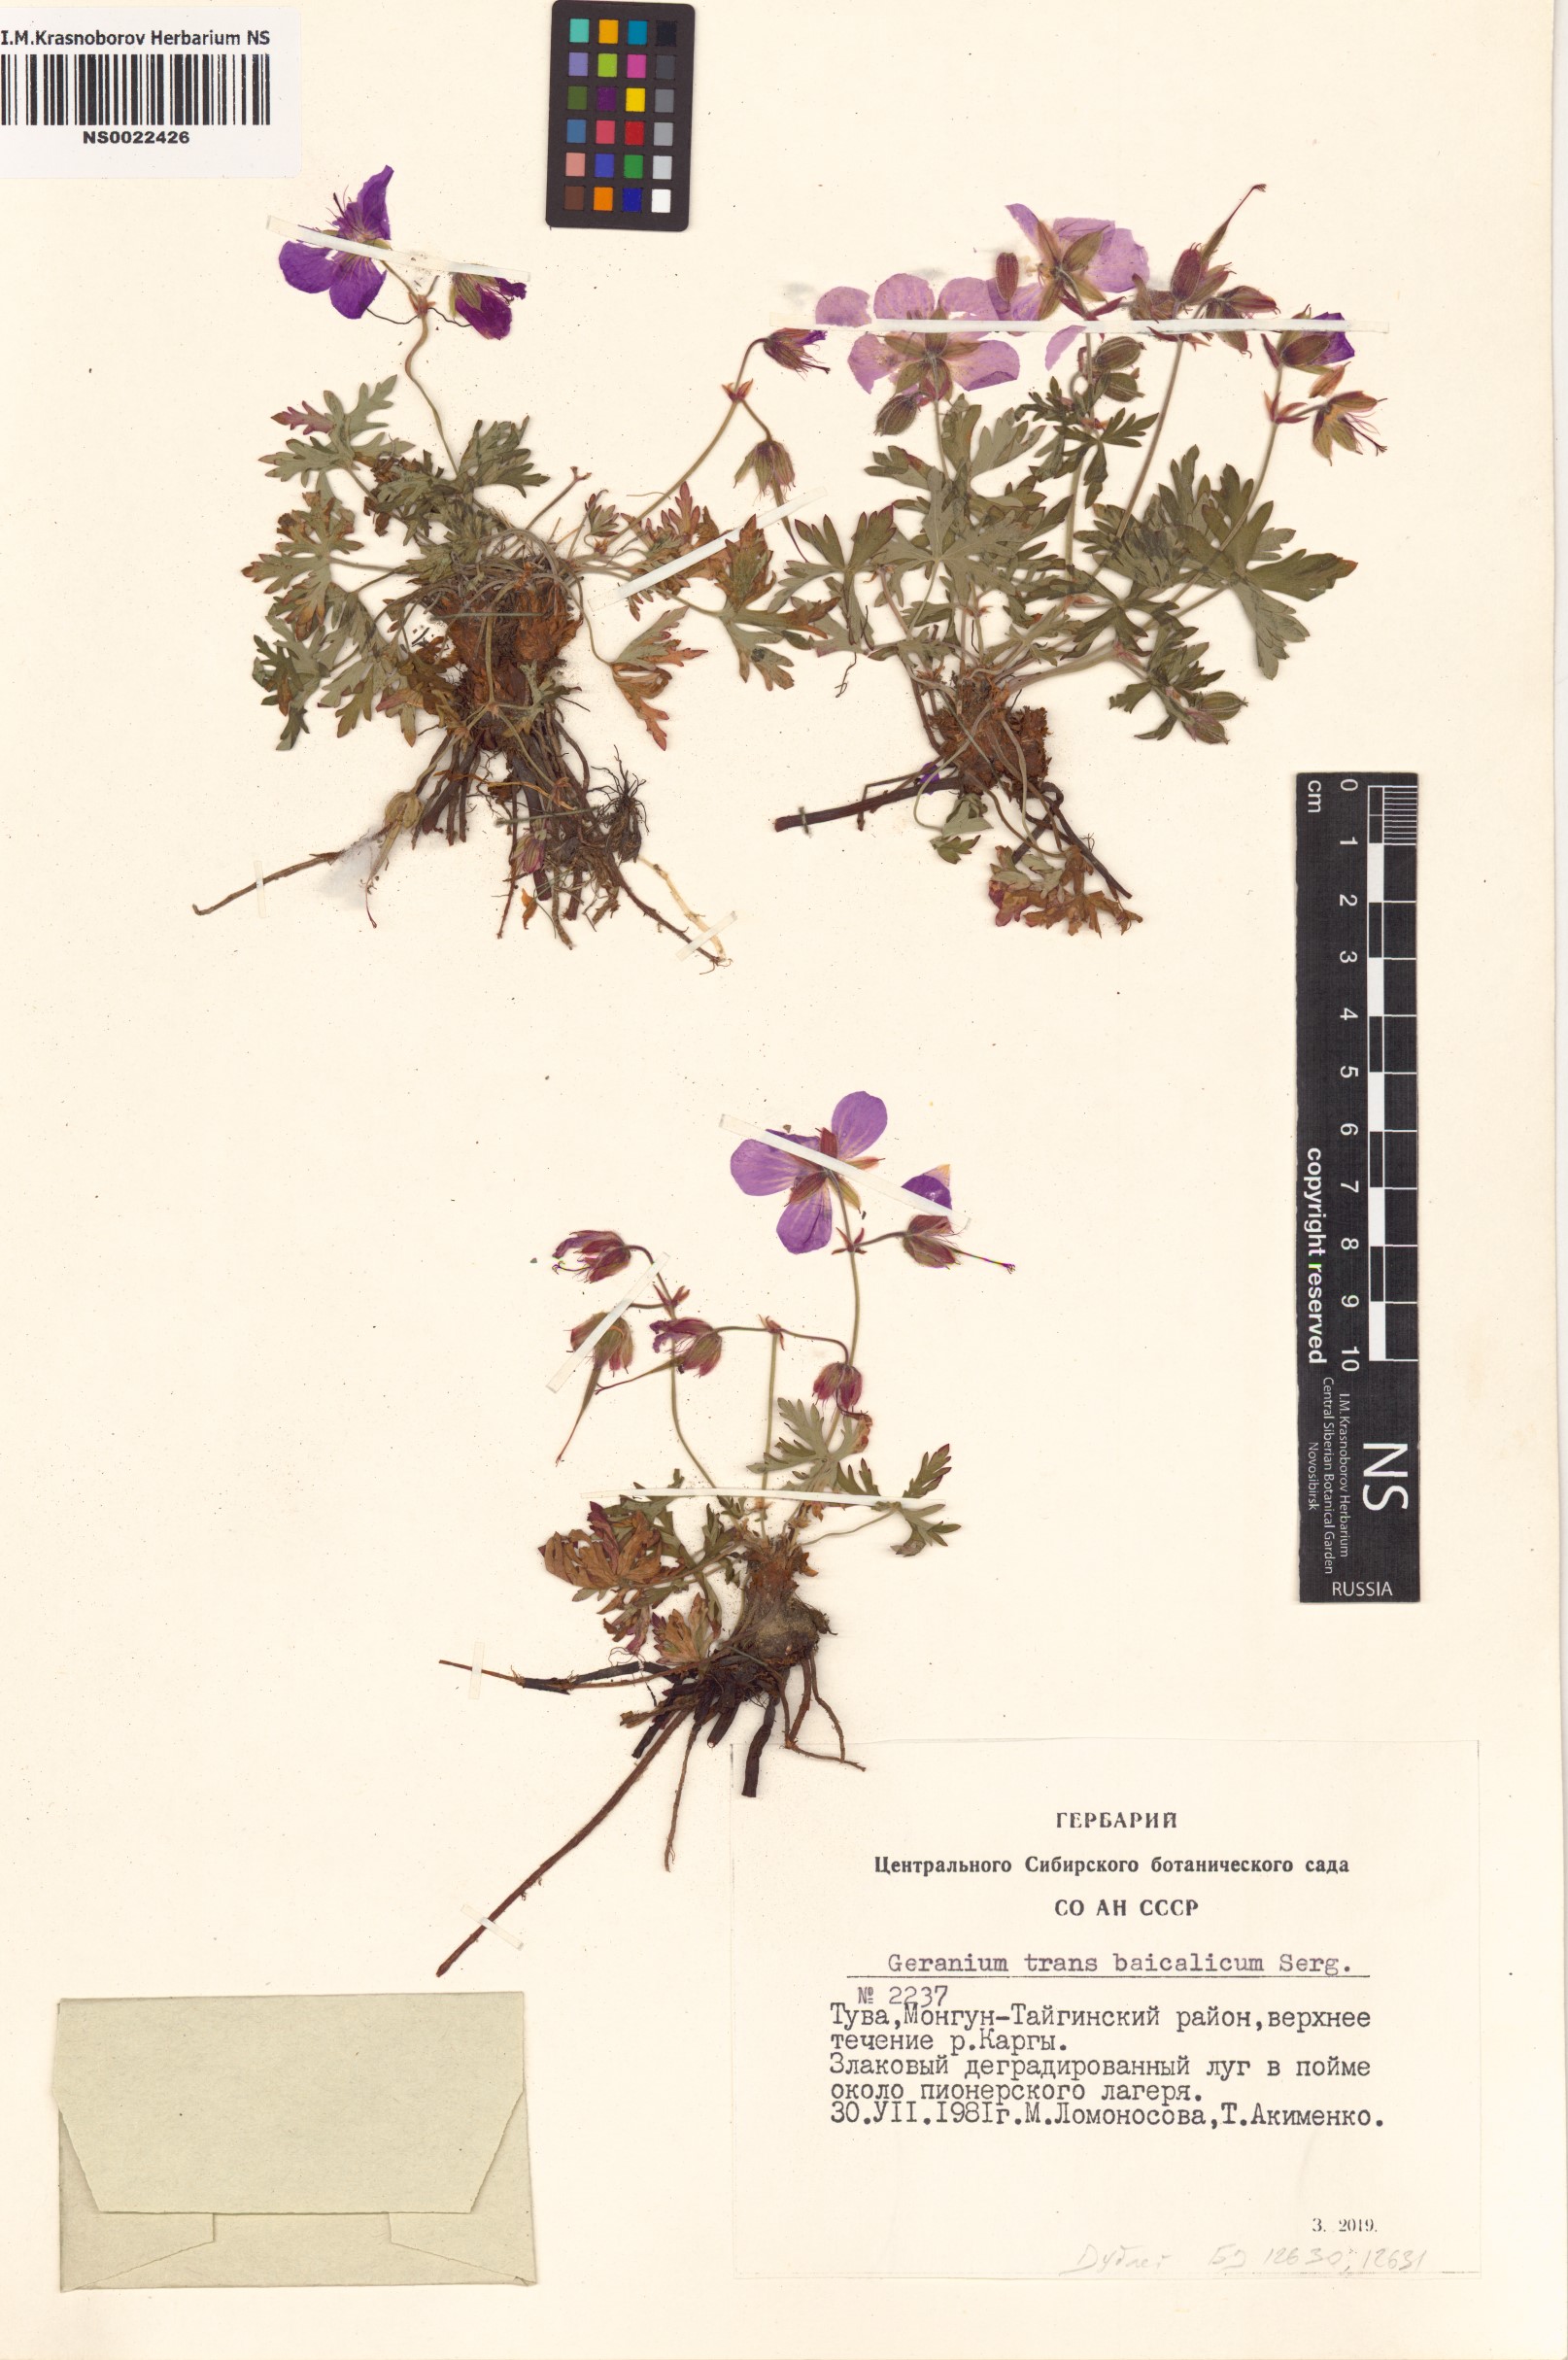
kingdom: Plantae
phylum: Tracheophyta
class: Magnoliopsida
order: Geraniales
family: Geraniaceae
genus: Geranium
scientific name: Geranium pratense
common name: Meadow crane's-bill
